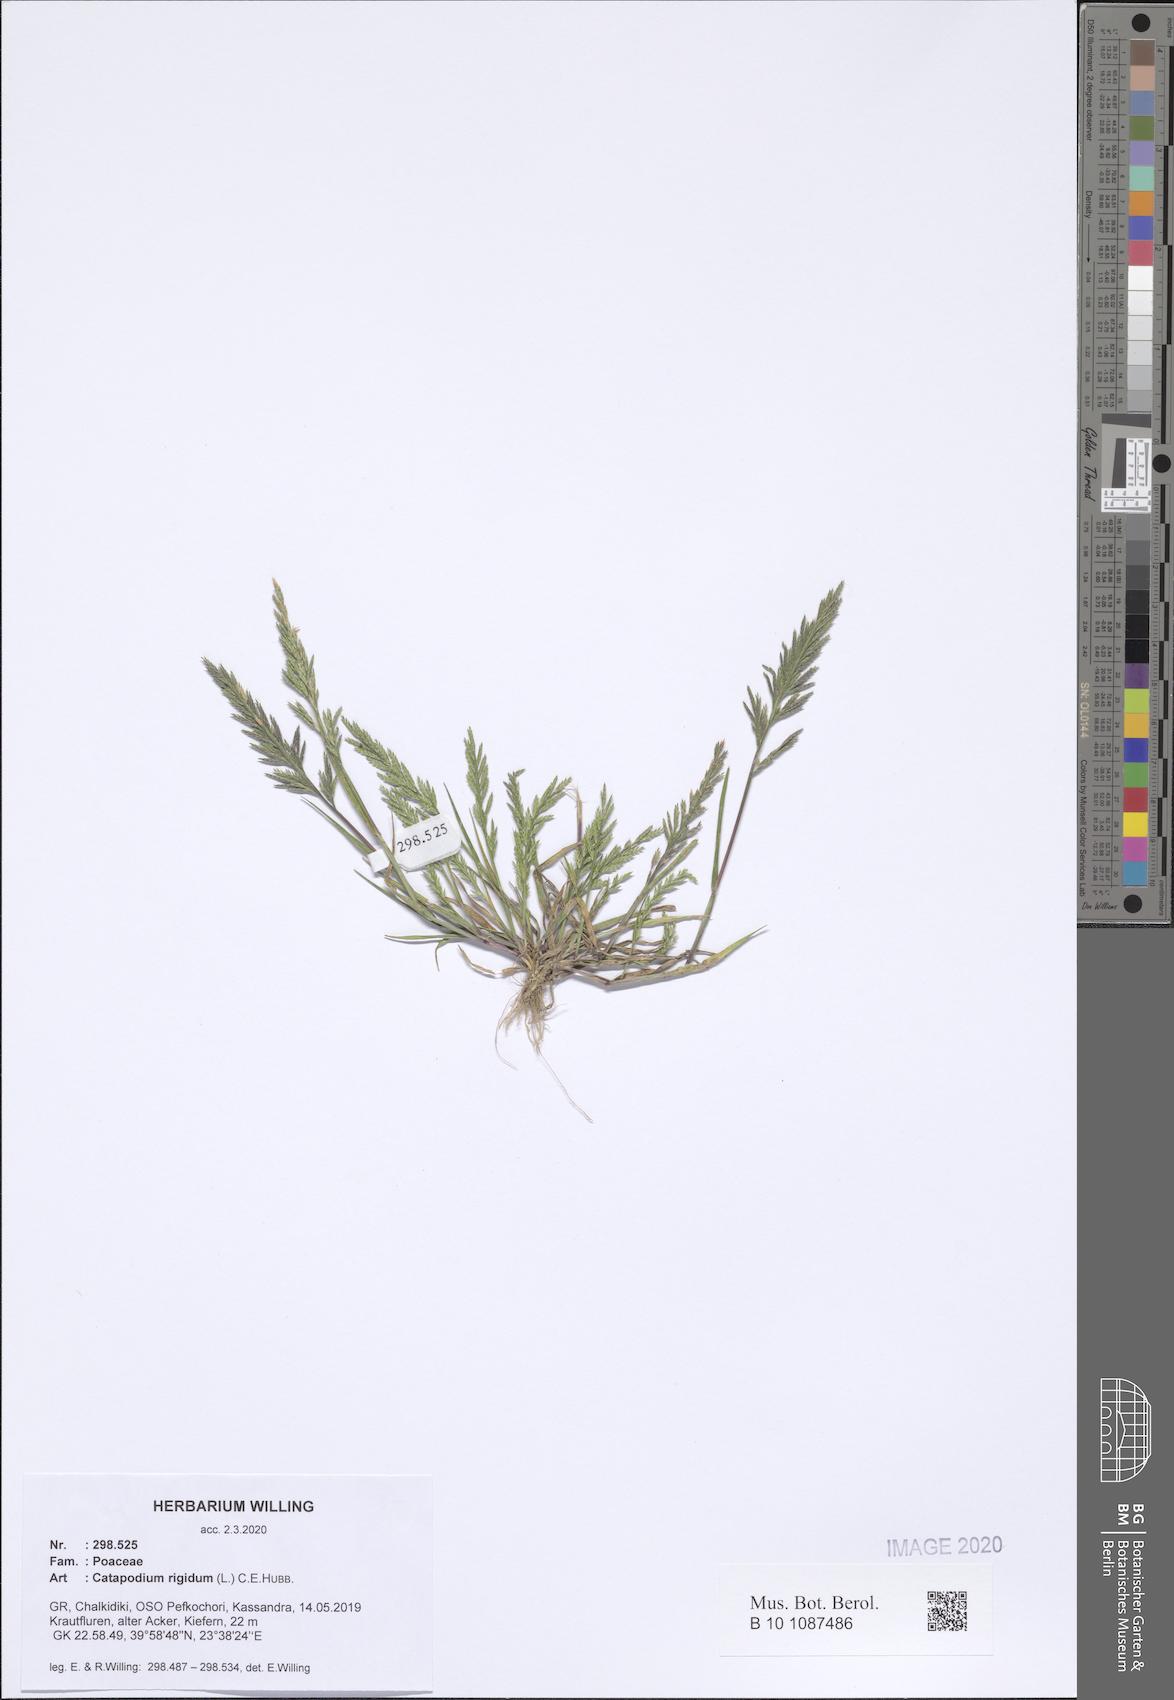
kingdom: Plantae
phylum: Tracheophyta
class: Liliopsida
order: Poales
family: Poaceae
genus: Catapodium
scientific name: Catapodium rigidum
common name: Fern-grass
